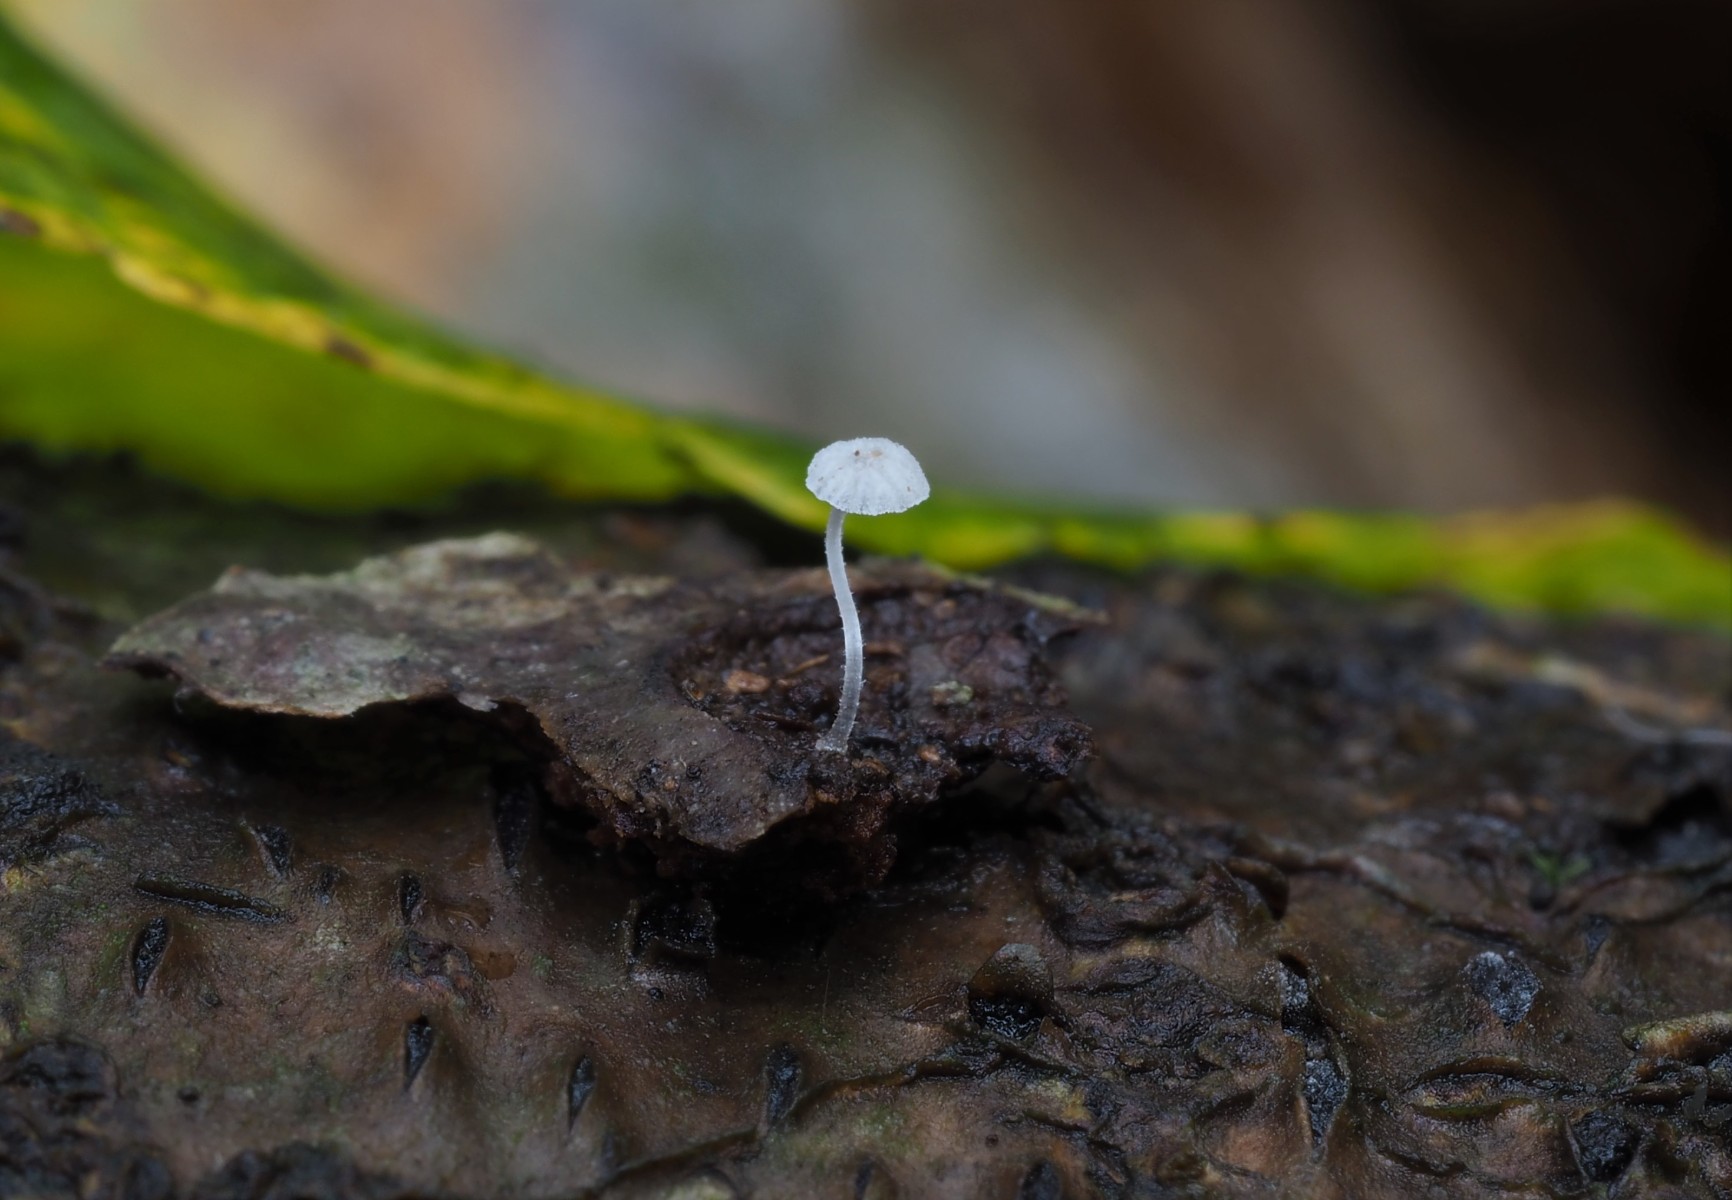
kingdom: Fungi
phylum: Basidiomycota
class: Agaricomycetes
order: Agaricales
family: Mycenaceae
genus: Mycena
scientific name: Mycena tenerrima
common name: pudret huesvamp
